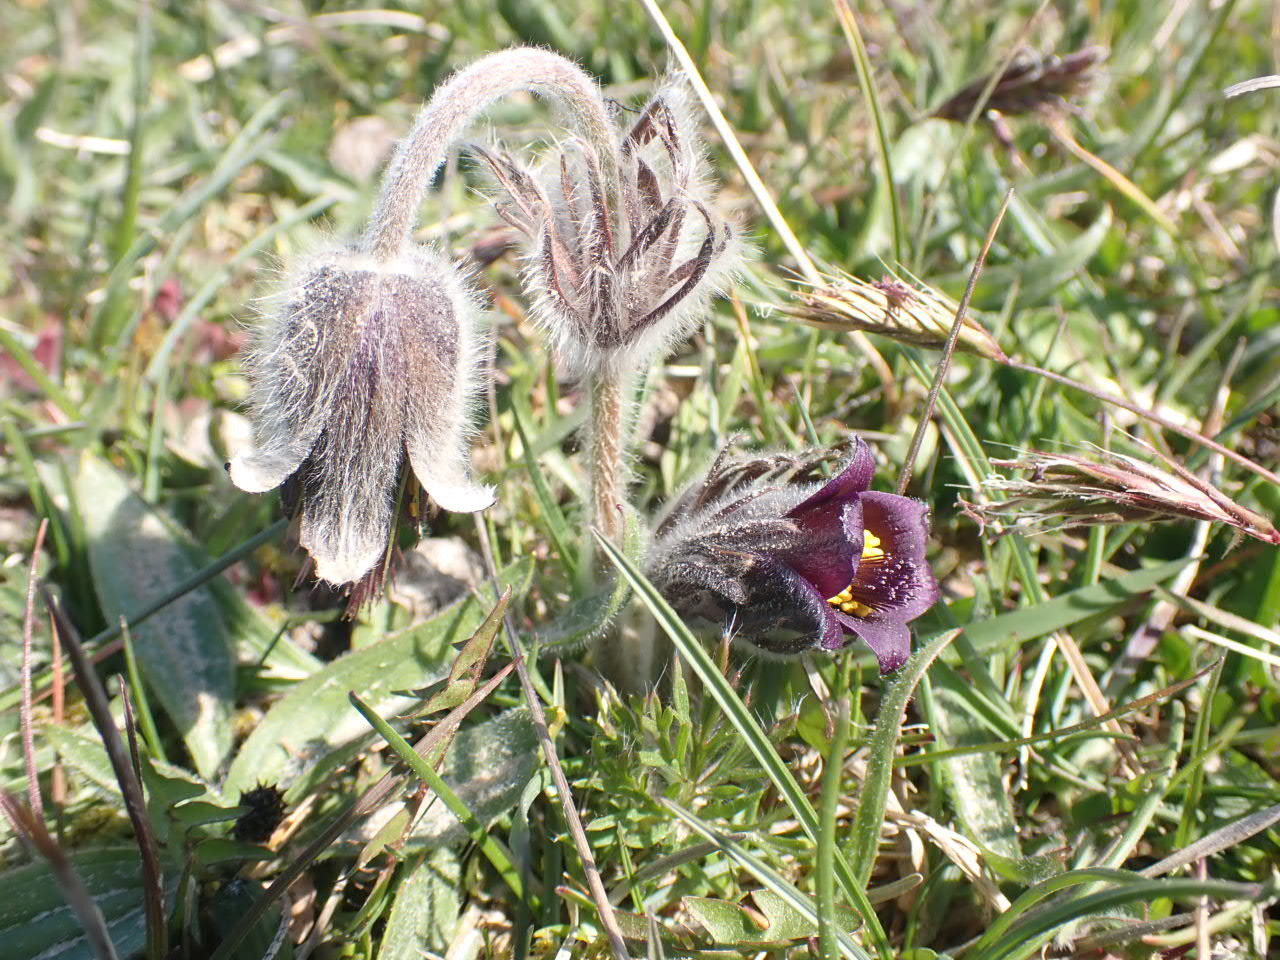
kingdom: Plantae
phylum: Tracheophyta
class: Magnoliopsida
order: Ranunculales
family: Ranunculaceae
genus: Pulsatilla
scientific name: Pulsatilla pratensis
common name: Nikkende kobjælde
